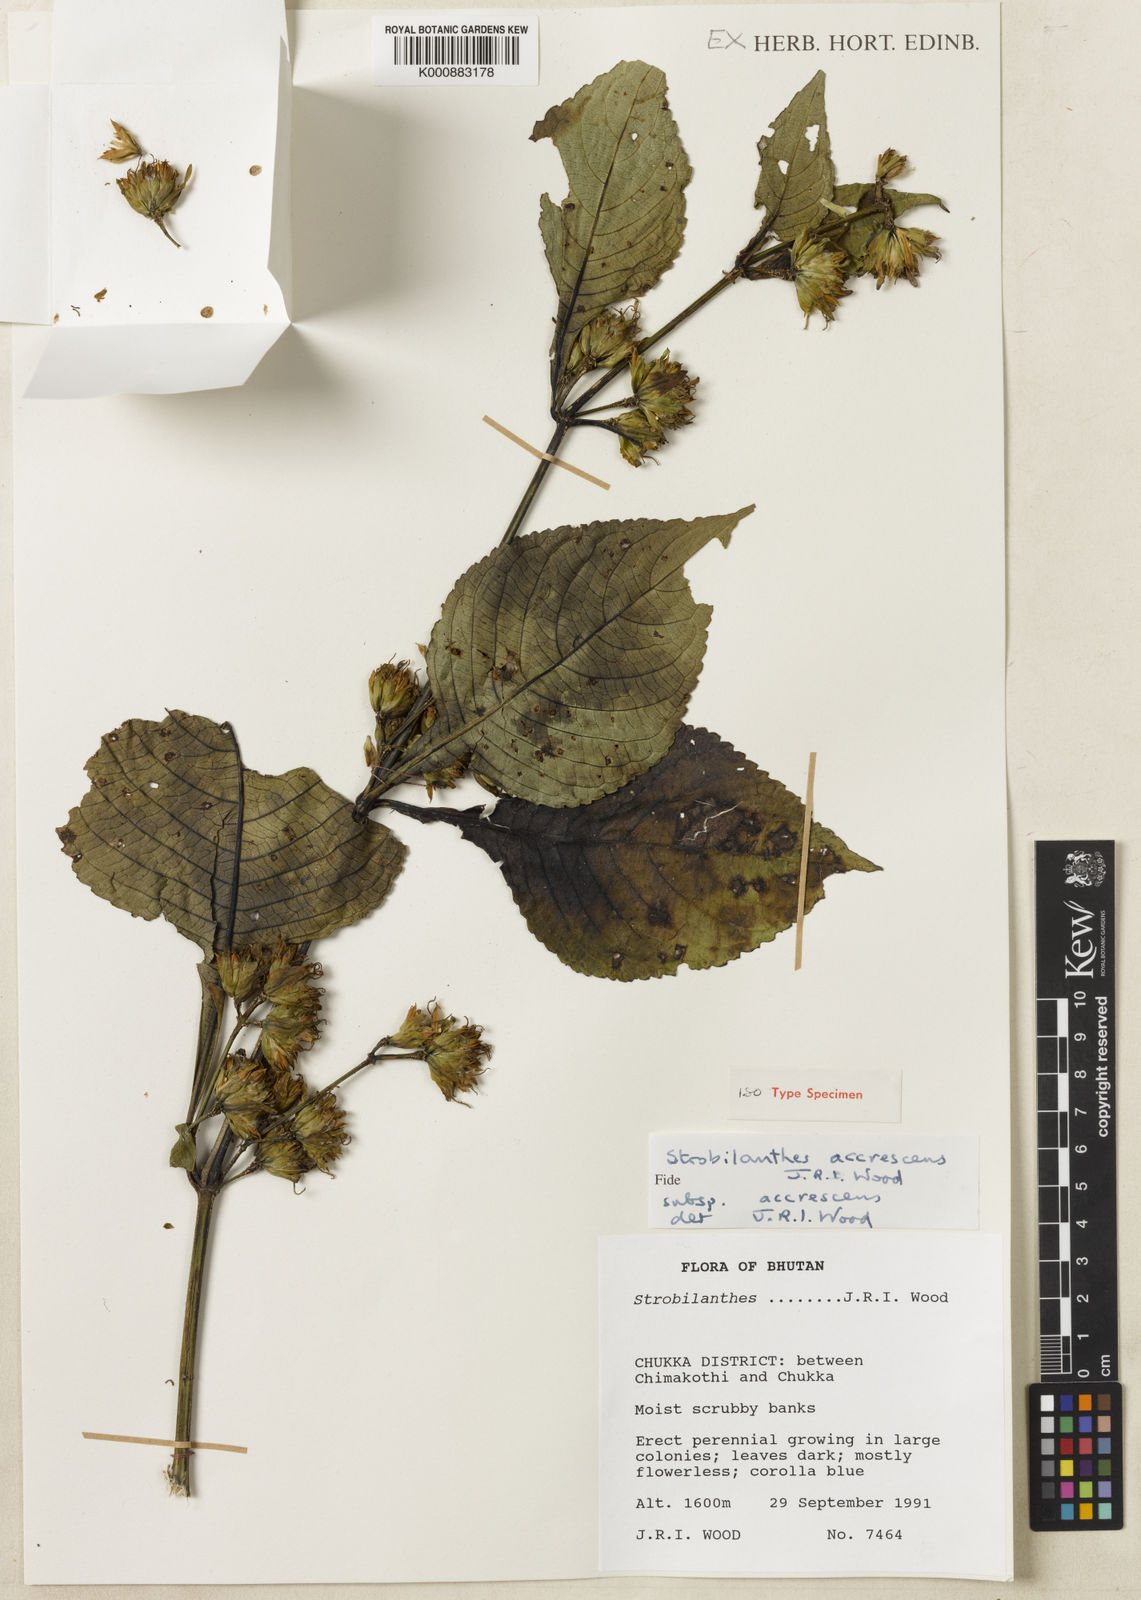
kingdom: Plantae
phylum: Tracheophyta
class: Magnoliopsida
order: Lamiales
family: Acanthaceae
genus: Strobilanthes
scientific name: Strobilanthes
